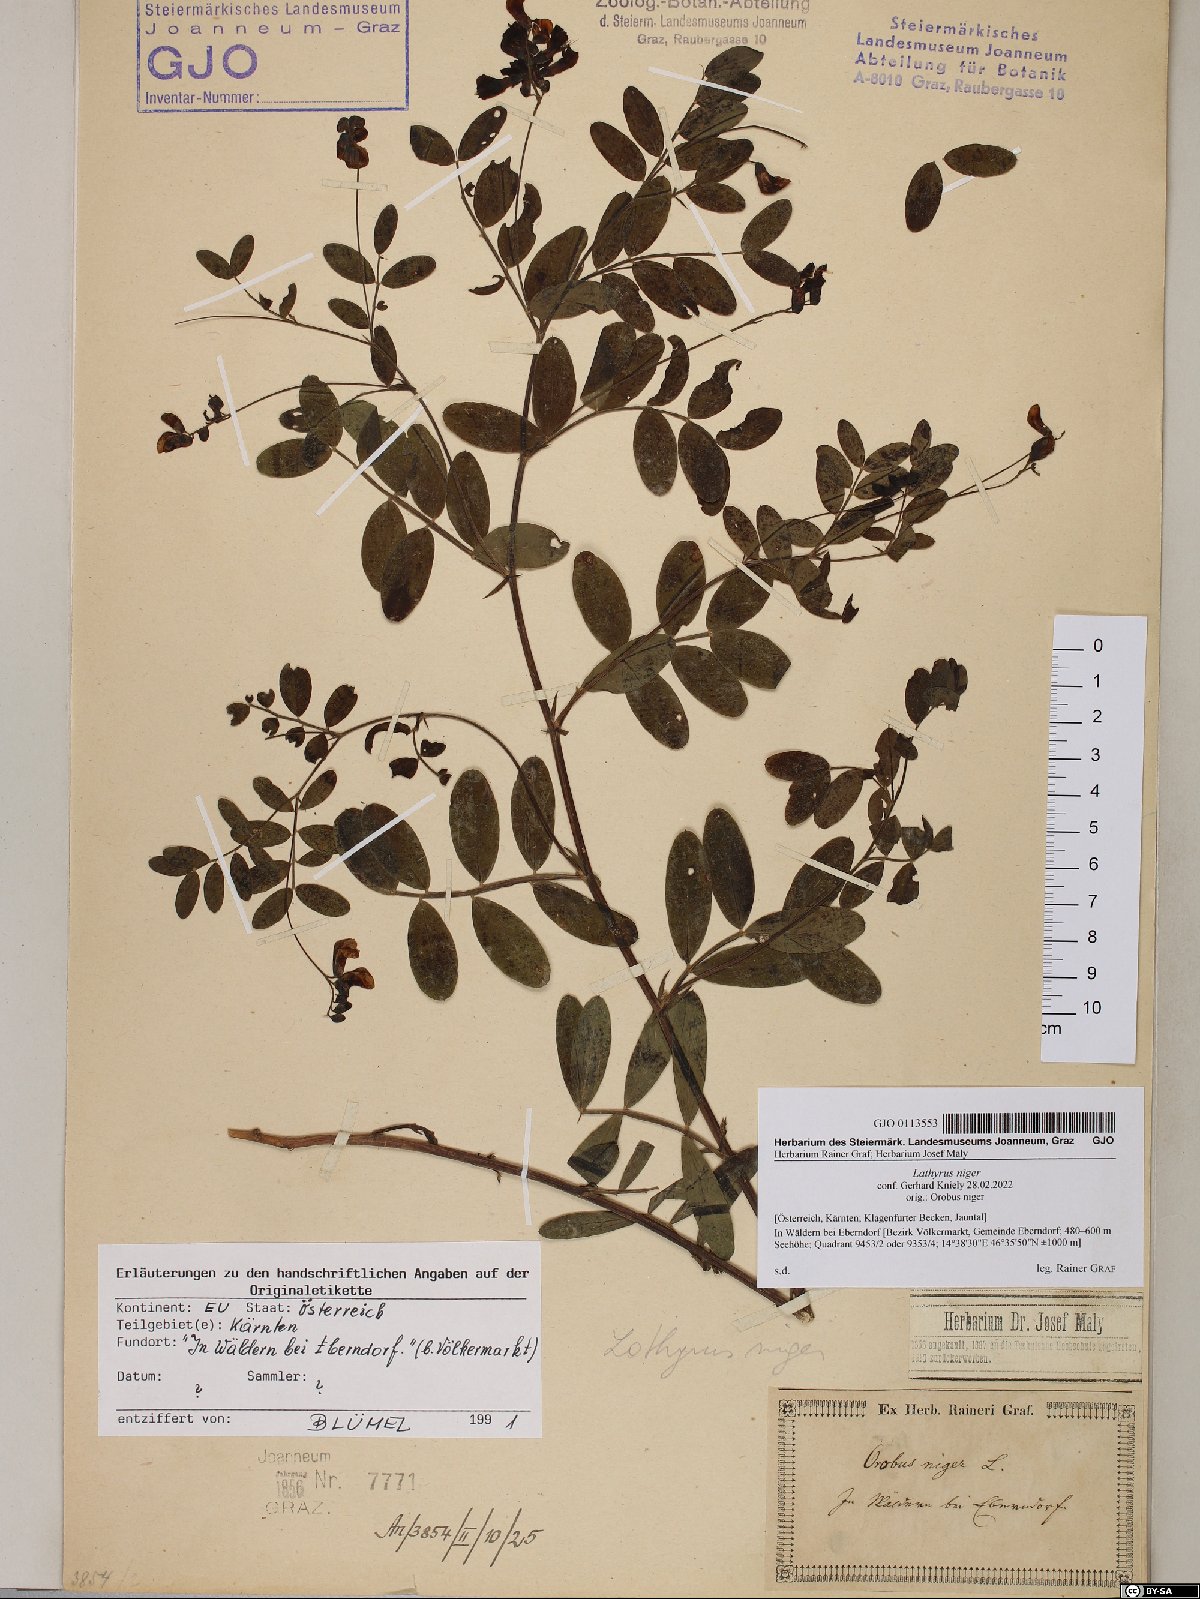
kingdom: Plantae
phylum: Tracheophyta
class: Magnoliopsida
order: Fabales
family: Fabaceae
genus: Lathyrus
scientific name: Lathyrus niger
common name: Black pea
